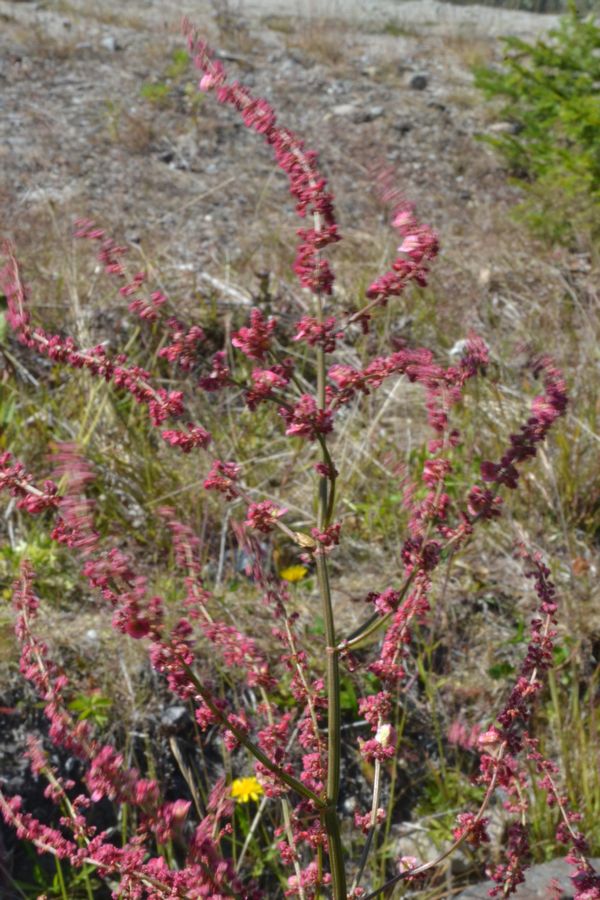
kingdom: Plantae
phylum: Tracheophyta
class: Magnoliopsida
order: Caryophyllales
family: Polygonaceae
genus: Rumex
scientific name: Rumex thyrsiflorus
